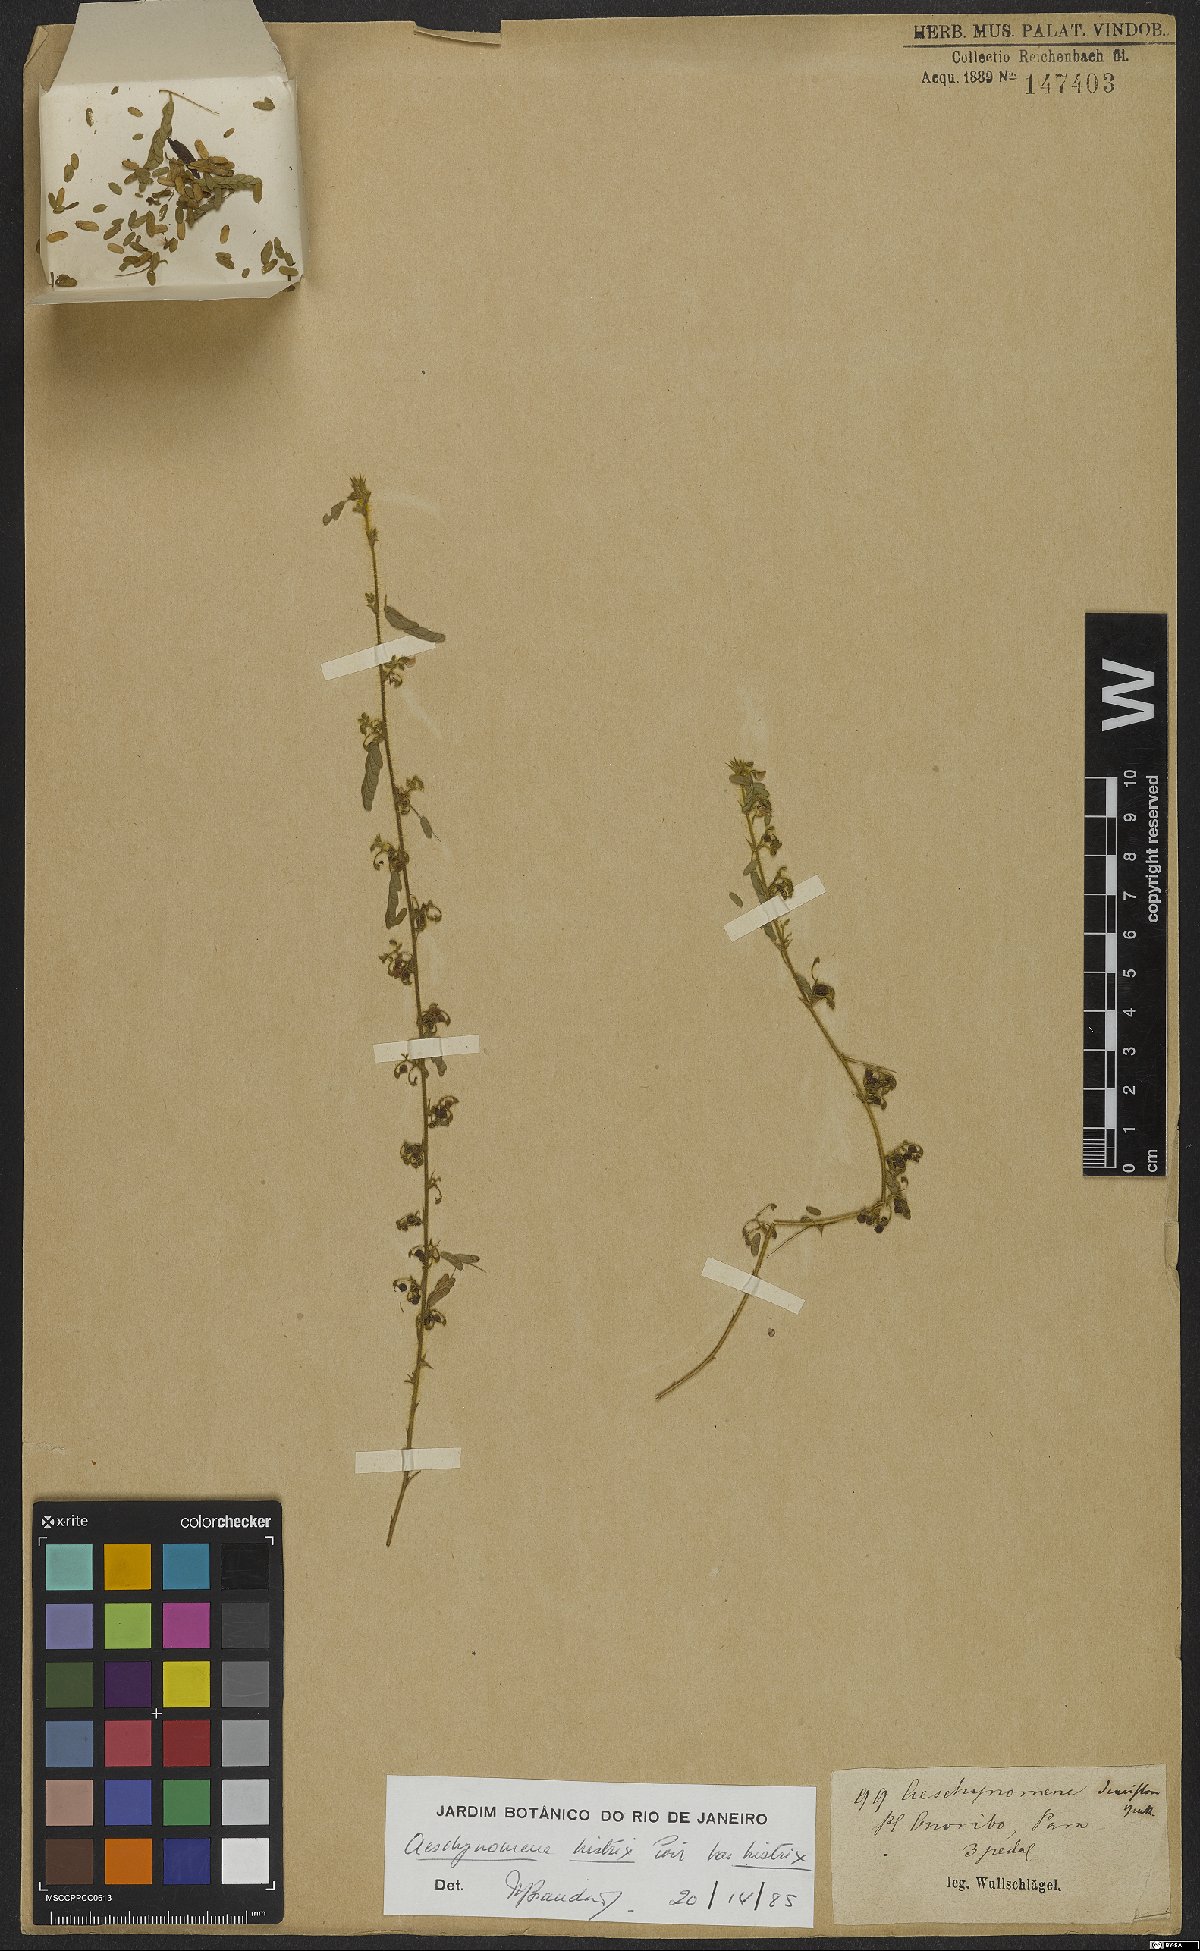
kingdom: Plantae
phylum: Tracheophyta
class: Magnoliopsida
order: Fabales
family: Fabaceae
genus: Ctenodon
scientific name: Ctenodon histrix
